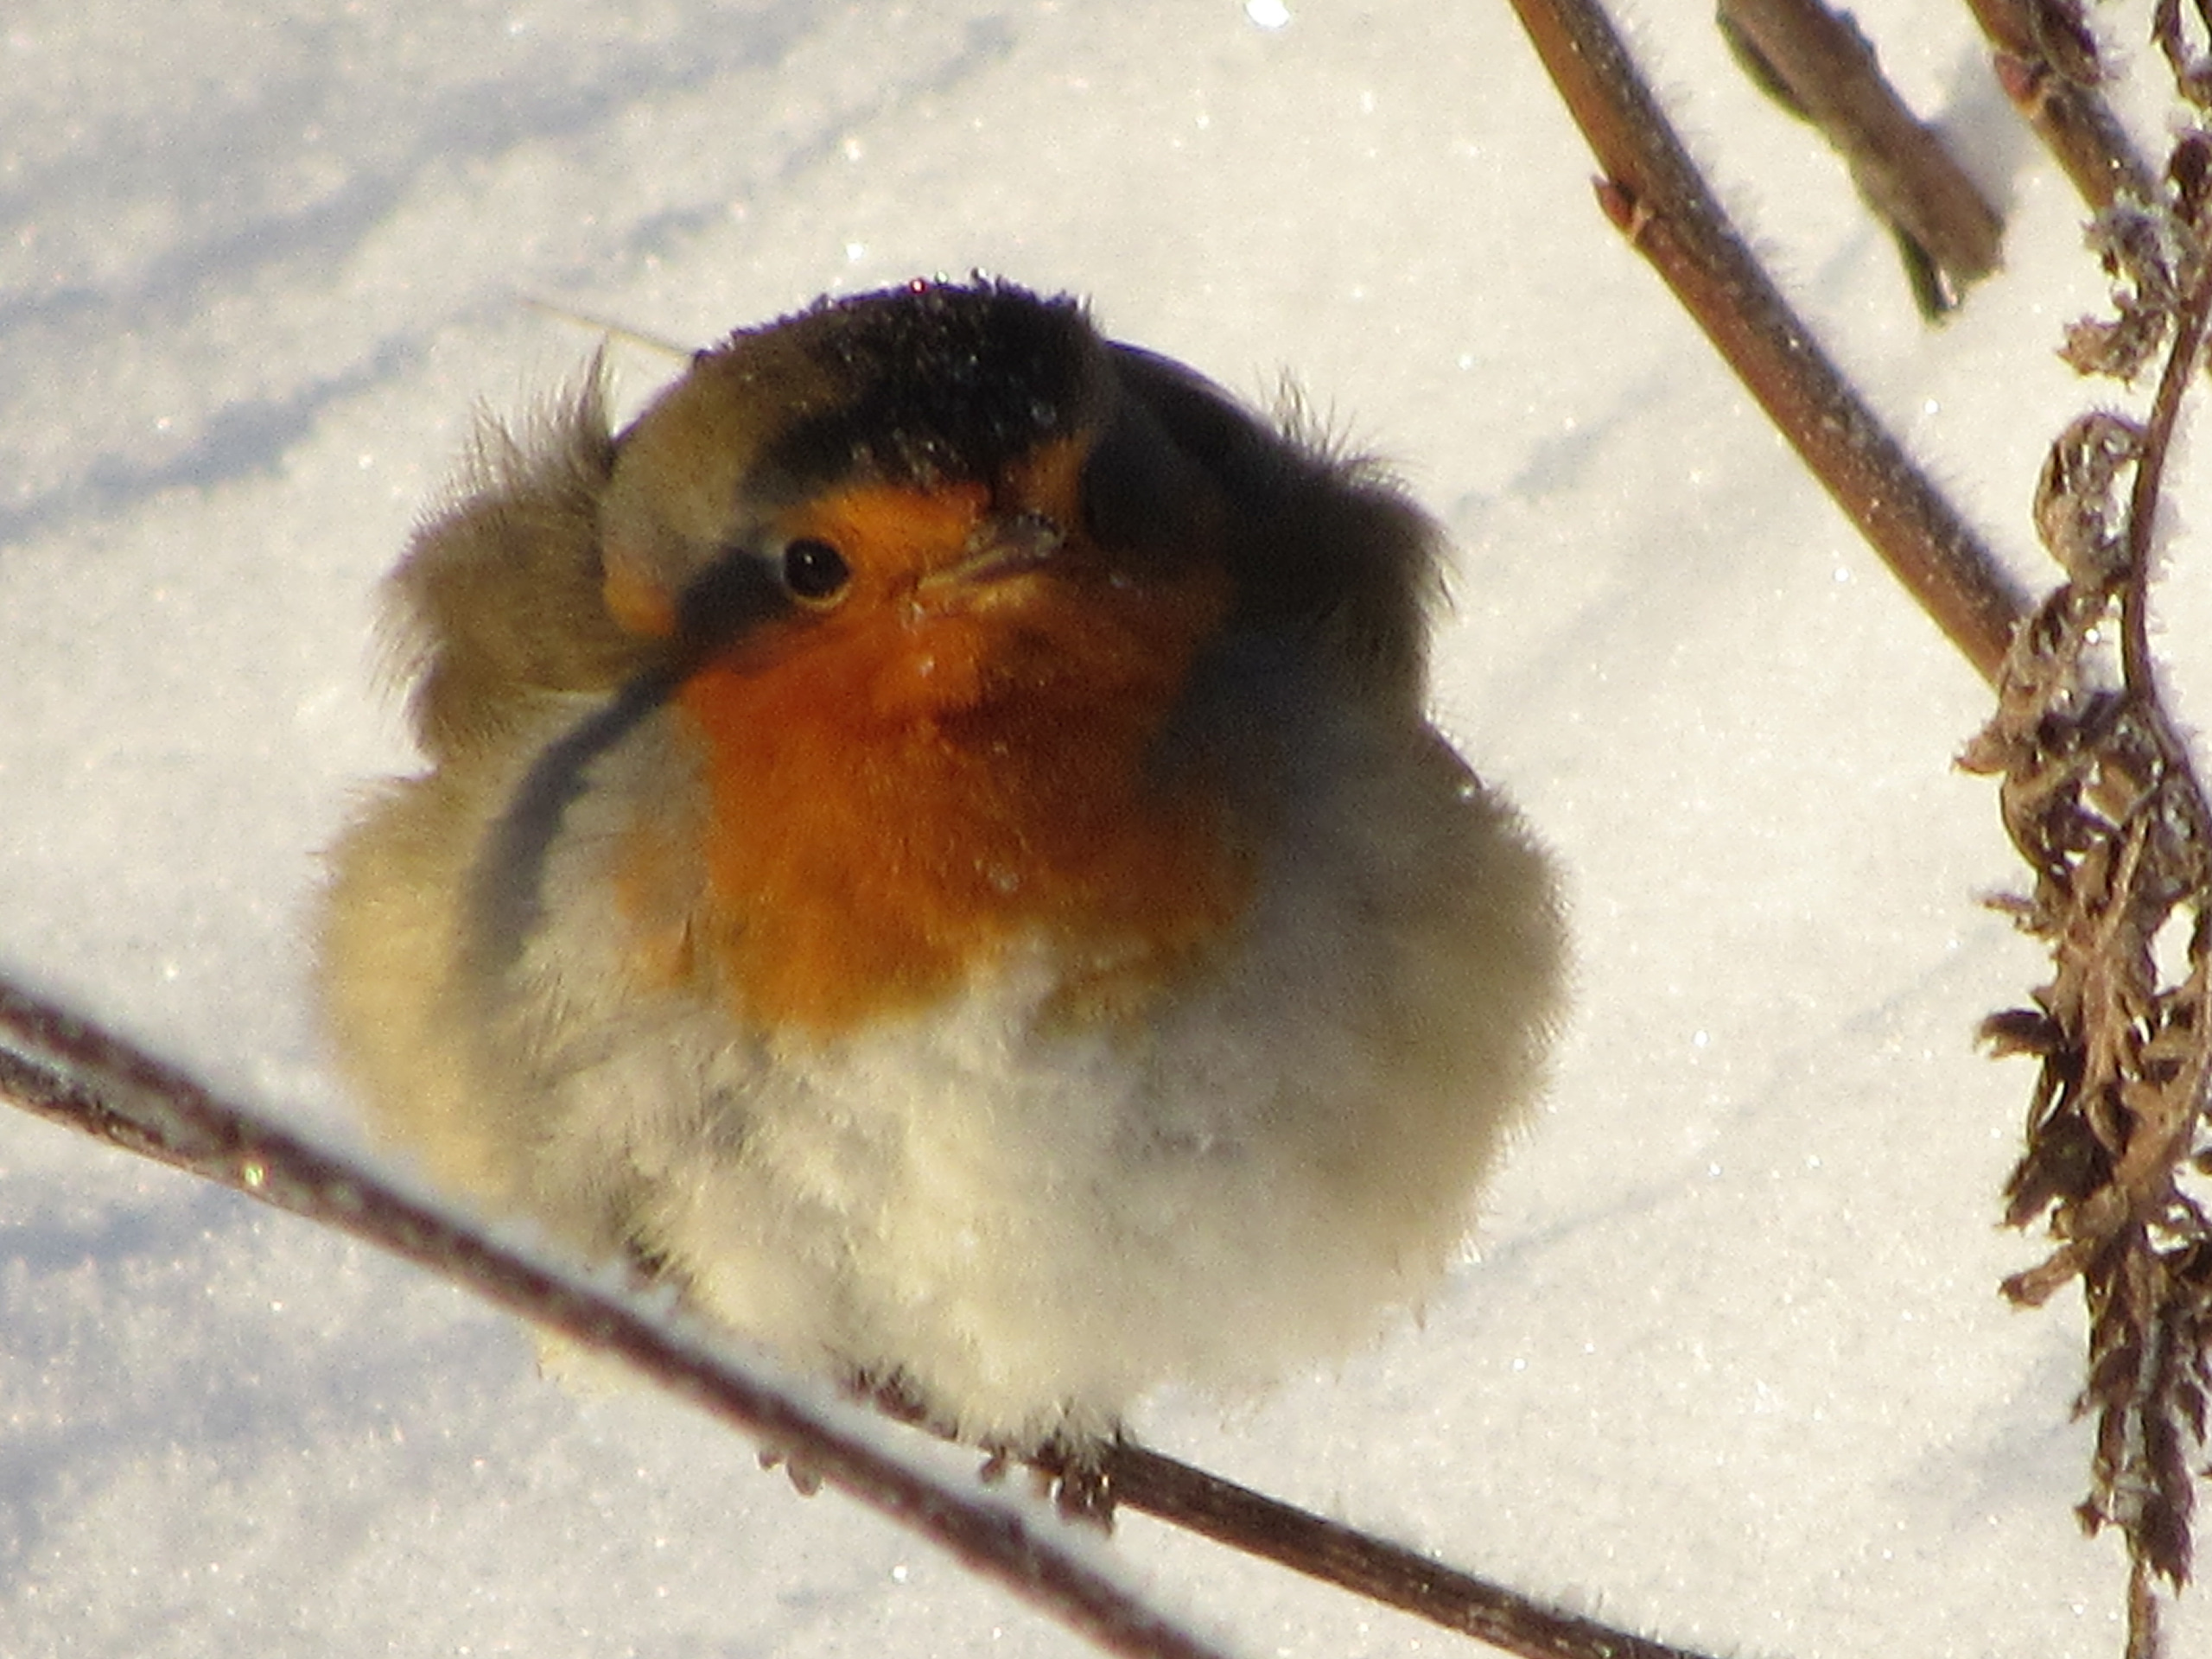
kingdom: Animalia
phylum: Chordata
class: Aves
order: Passeriformes
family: Muscicapidae
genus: Erithacus
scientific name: Erithacus rubecula
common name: Rødhals/rødkælk
